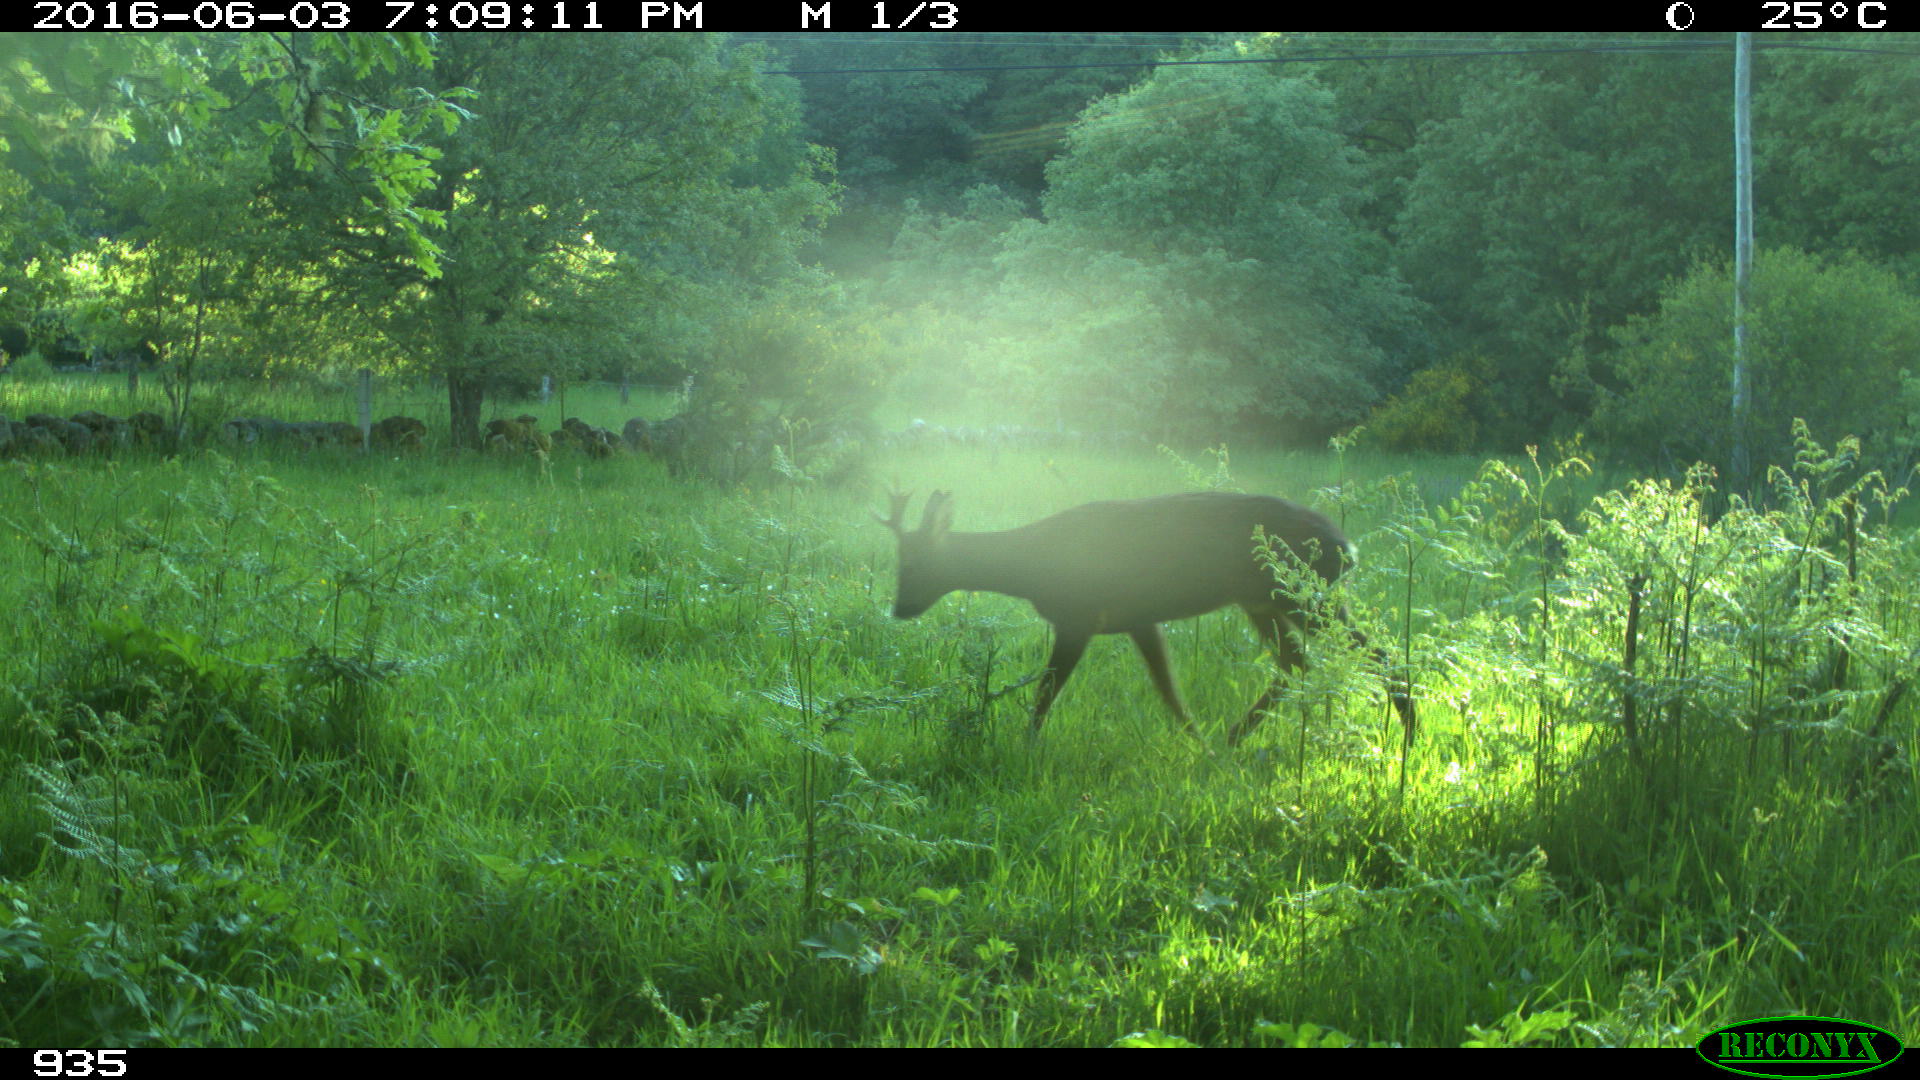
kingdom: Animalia
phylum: Chordata
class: Mammalia
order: Artiodactyla
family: Cervidae
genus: Capreolus
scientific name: Capreolus capreolus
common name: Western roe deer
